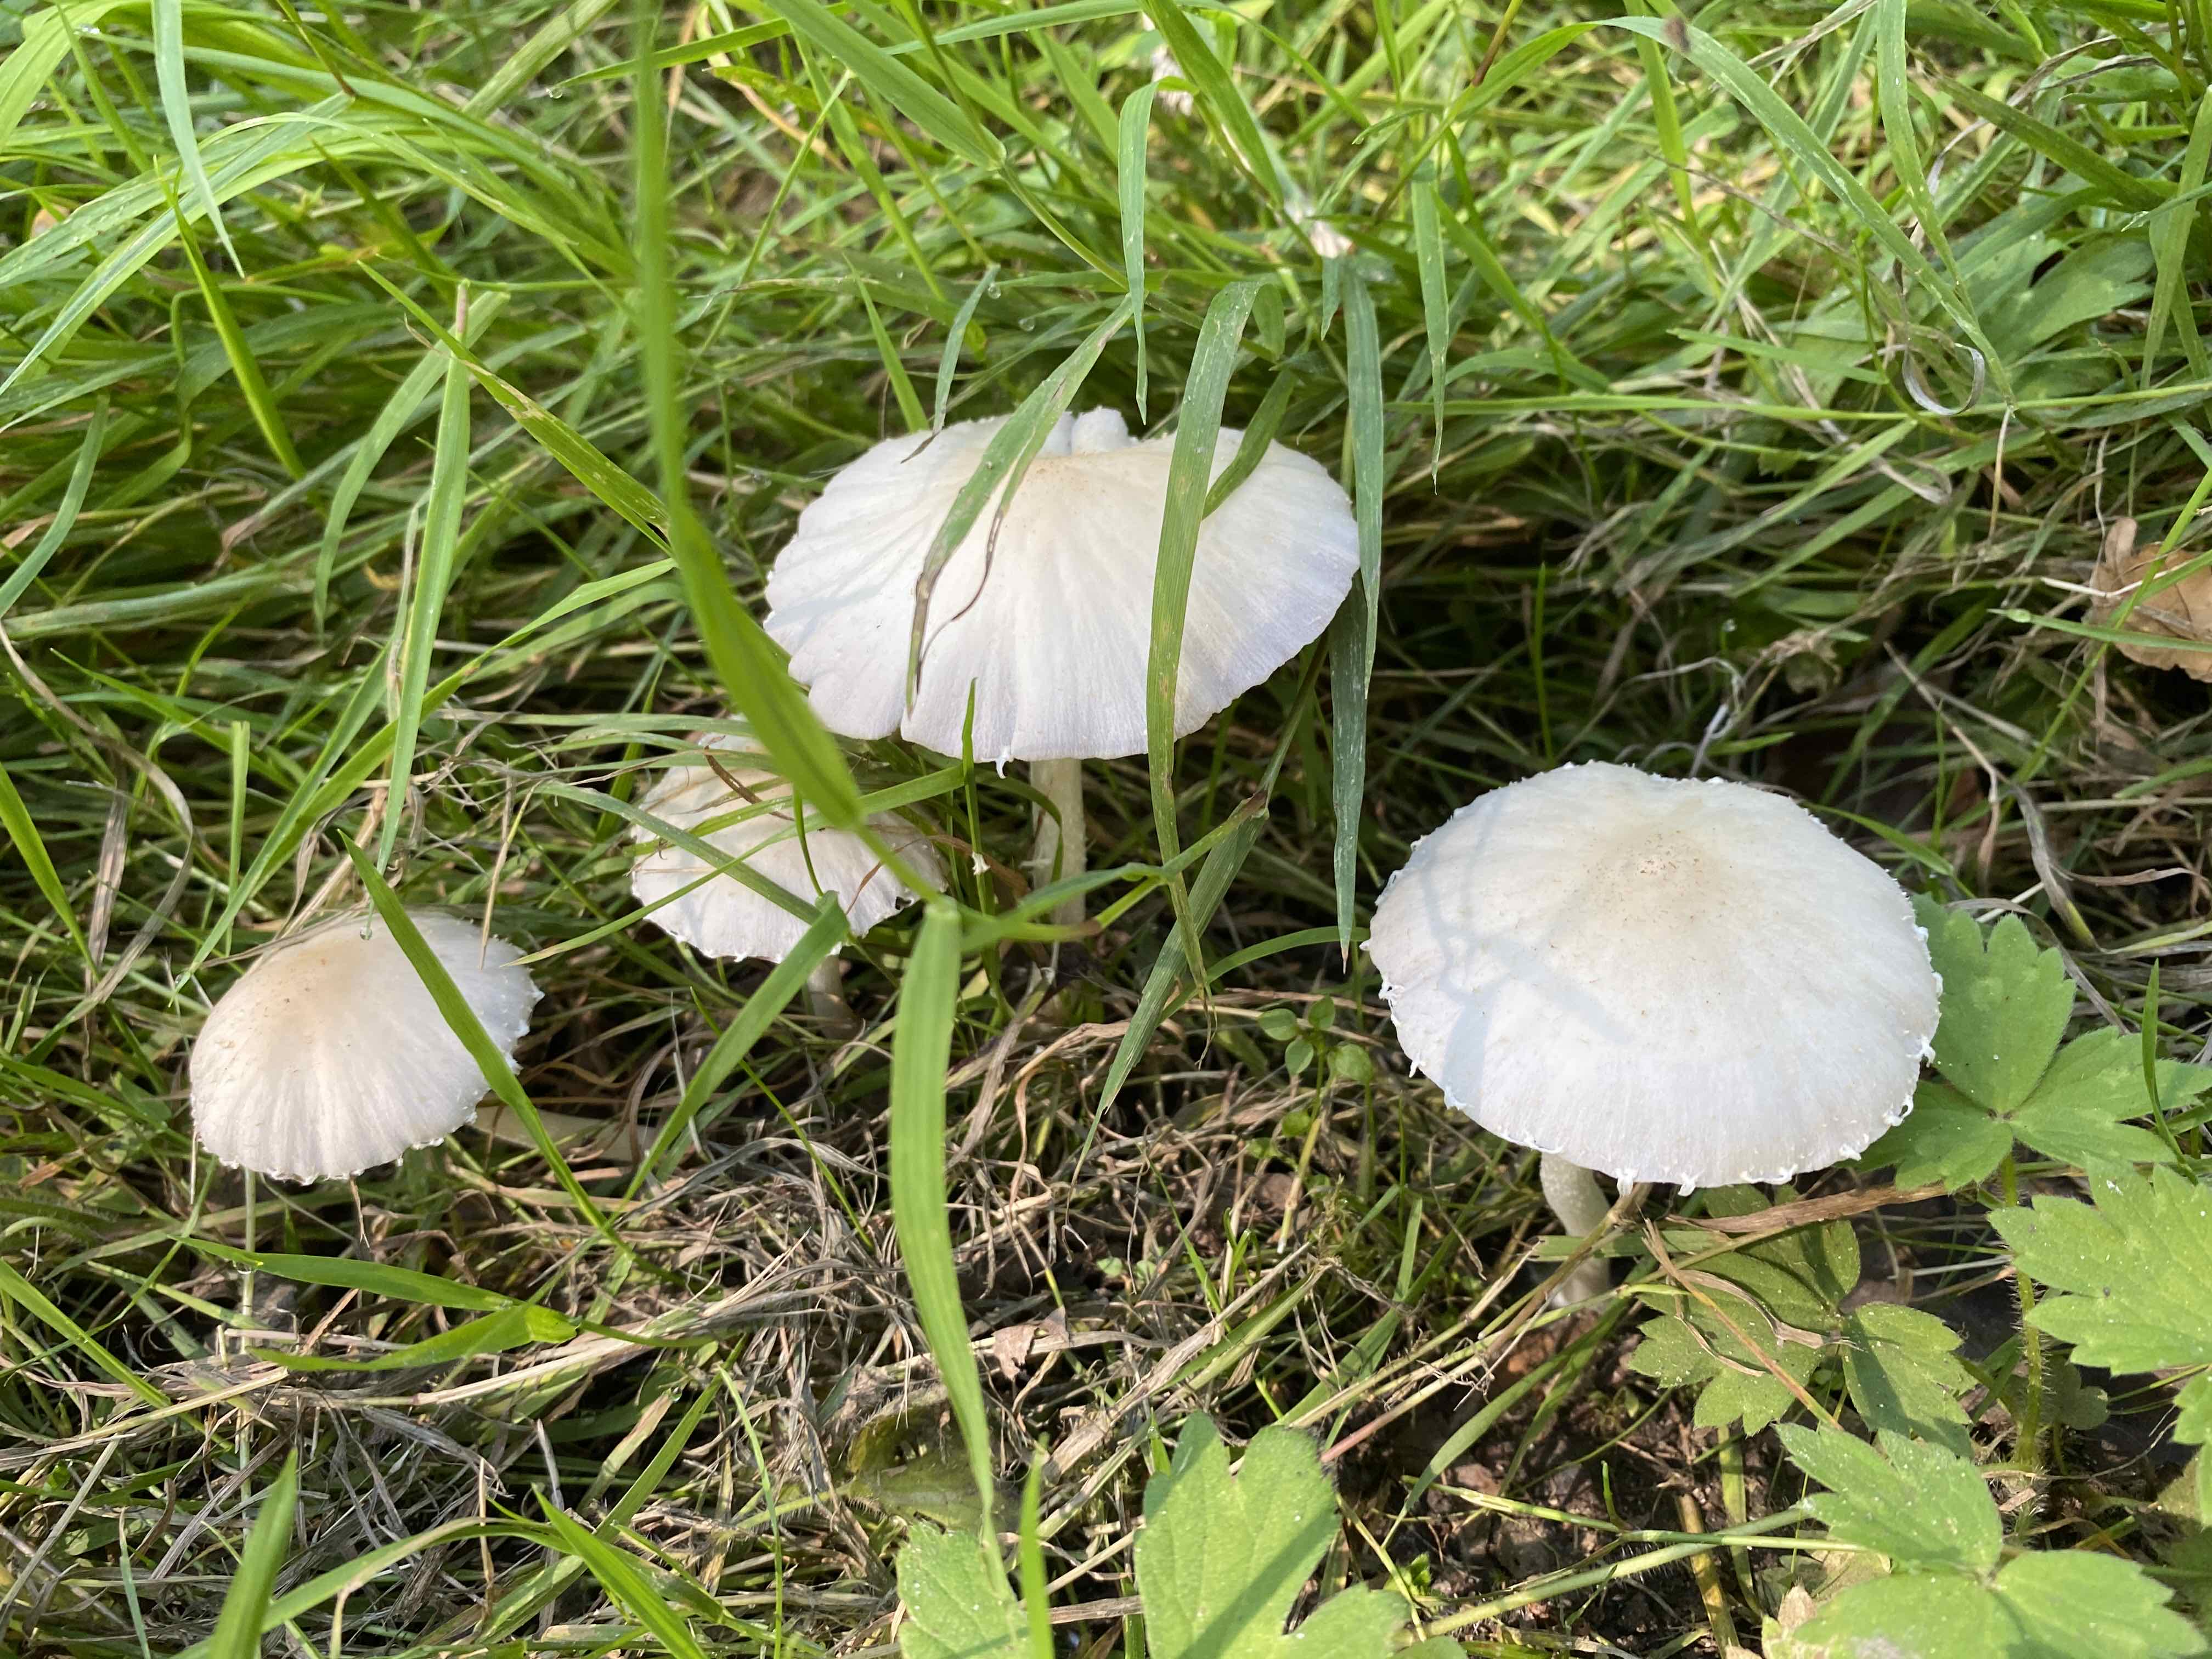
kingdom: Fungi
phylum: Basidiomycota
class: Agaricomycetes
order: Agaricales
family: Psathyrellaceae
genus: Candolleomyces
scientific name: Candolleomyces candolleanus
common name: Candolles mørkhat
